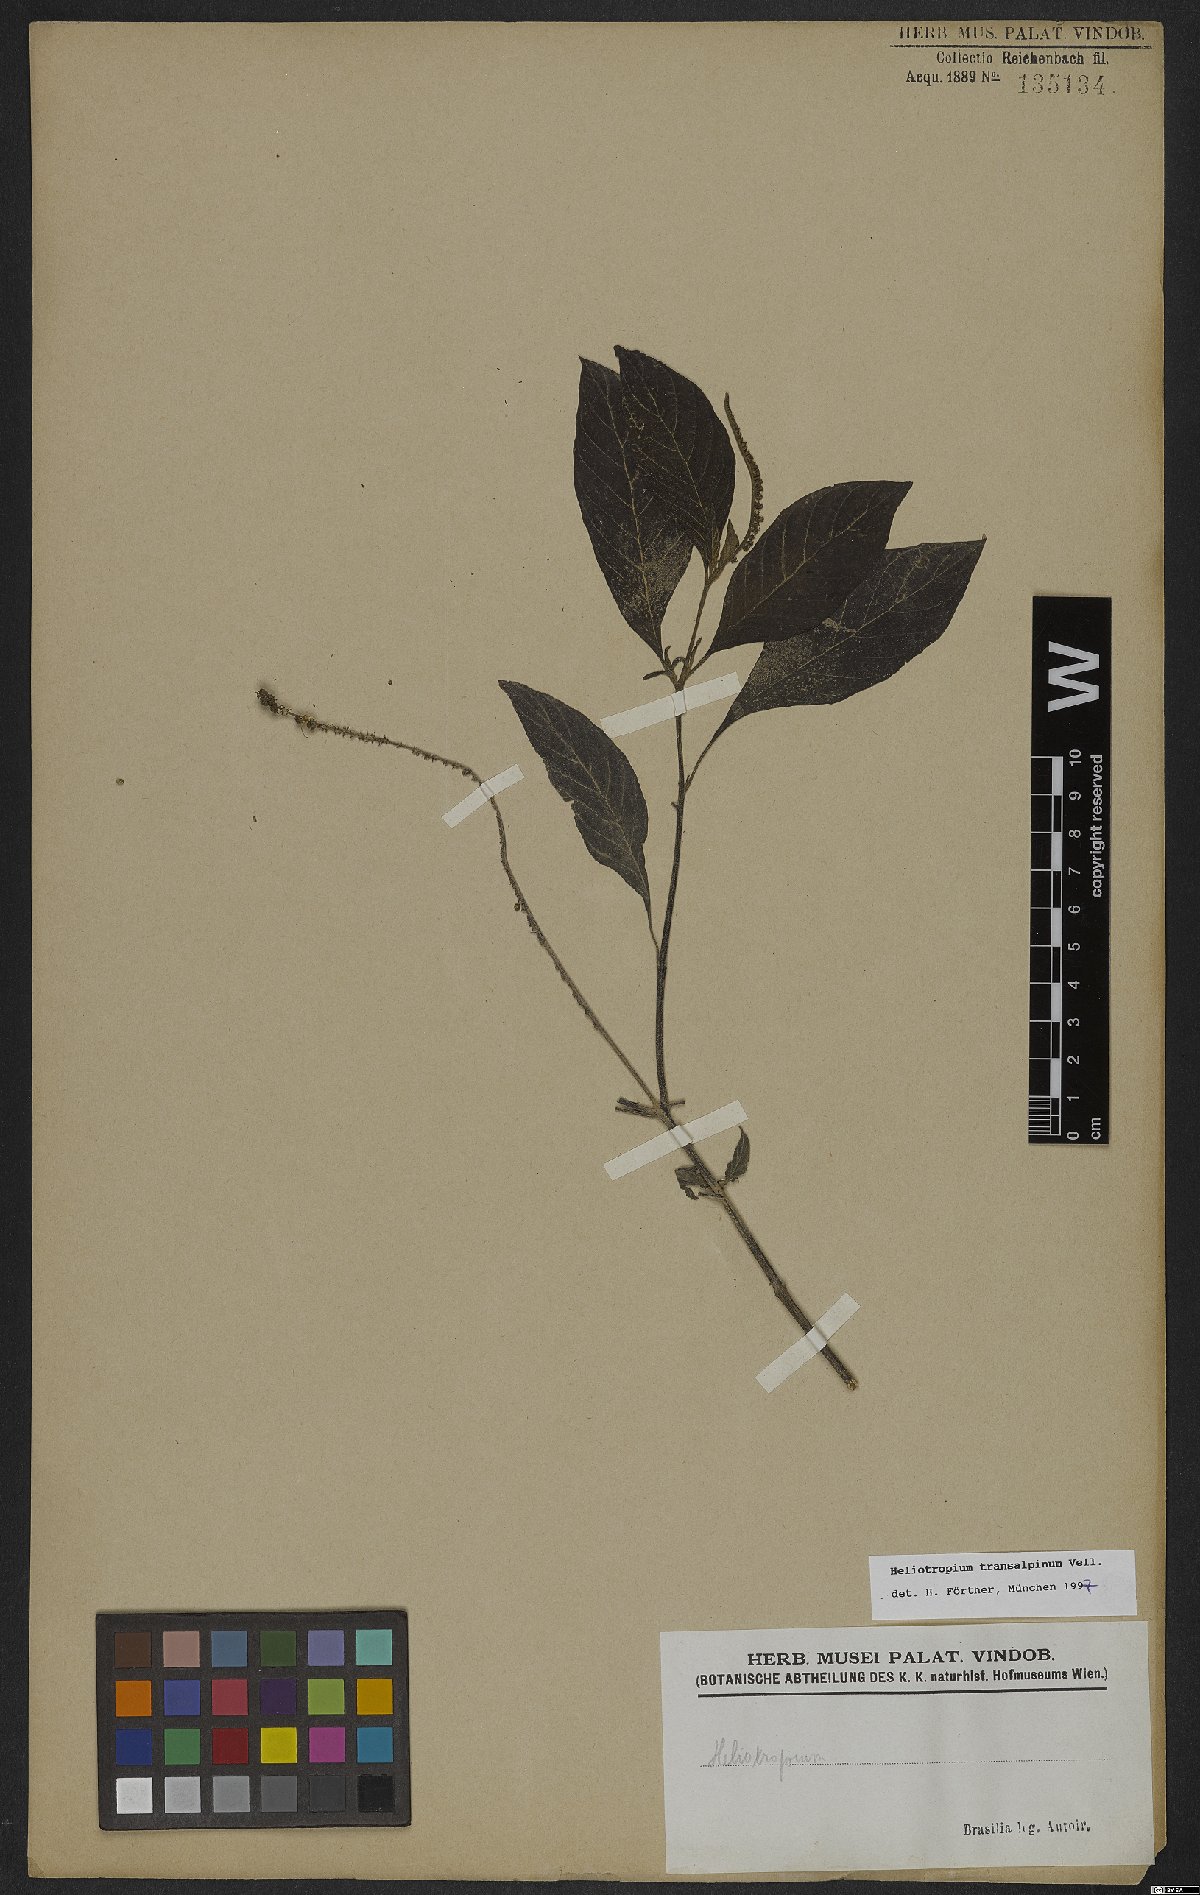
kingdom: Plantae
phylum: Tracheophyta
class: Magnoliopsida
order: Boraginales
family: Heliotropiaceae
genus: Heliotropium
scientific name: Heliotropium transalpinum
